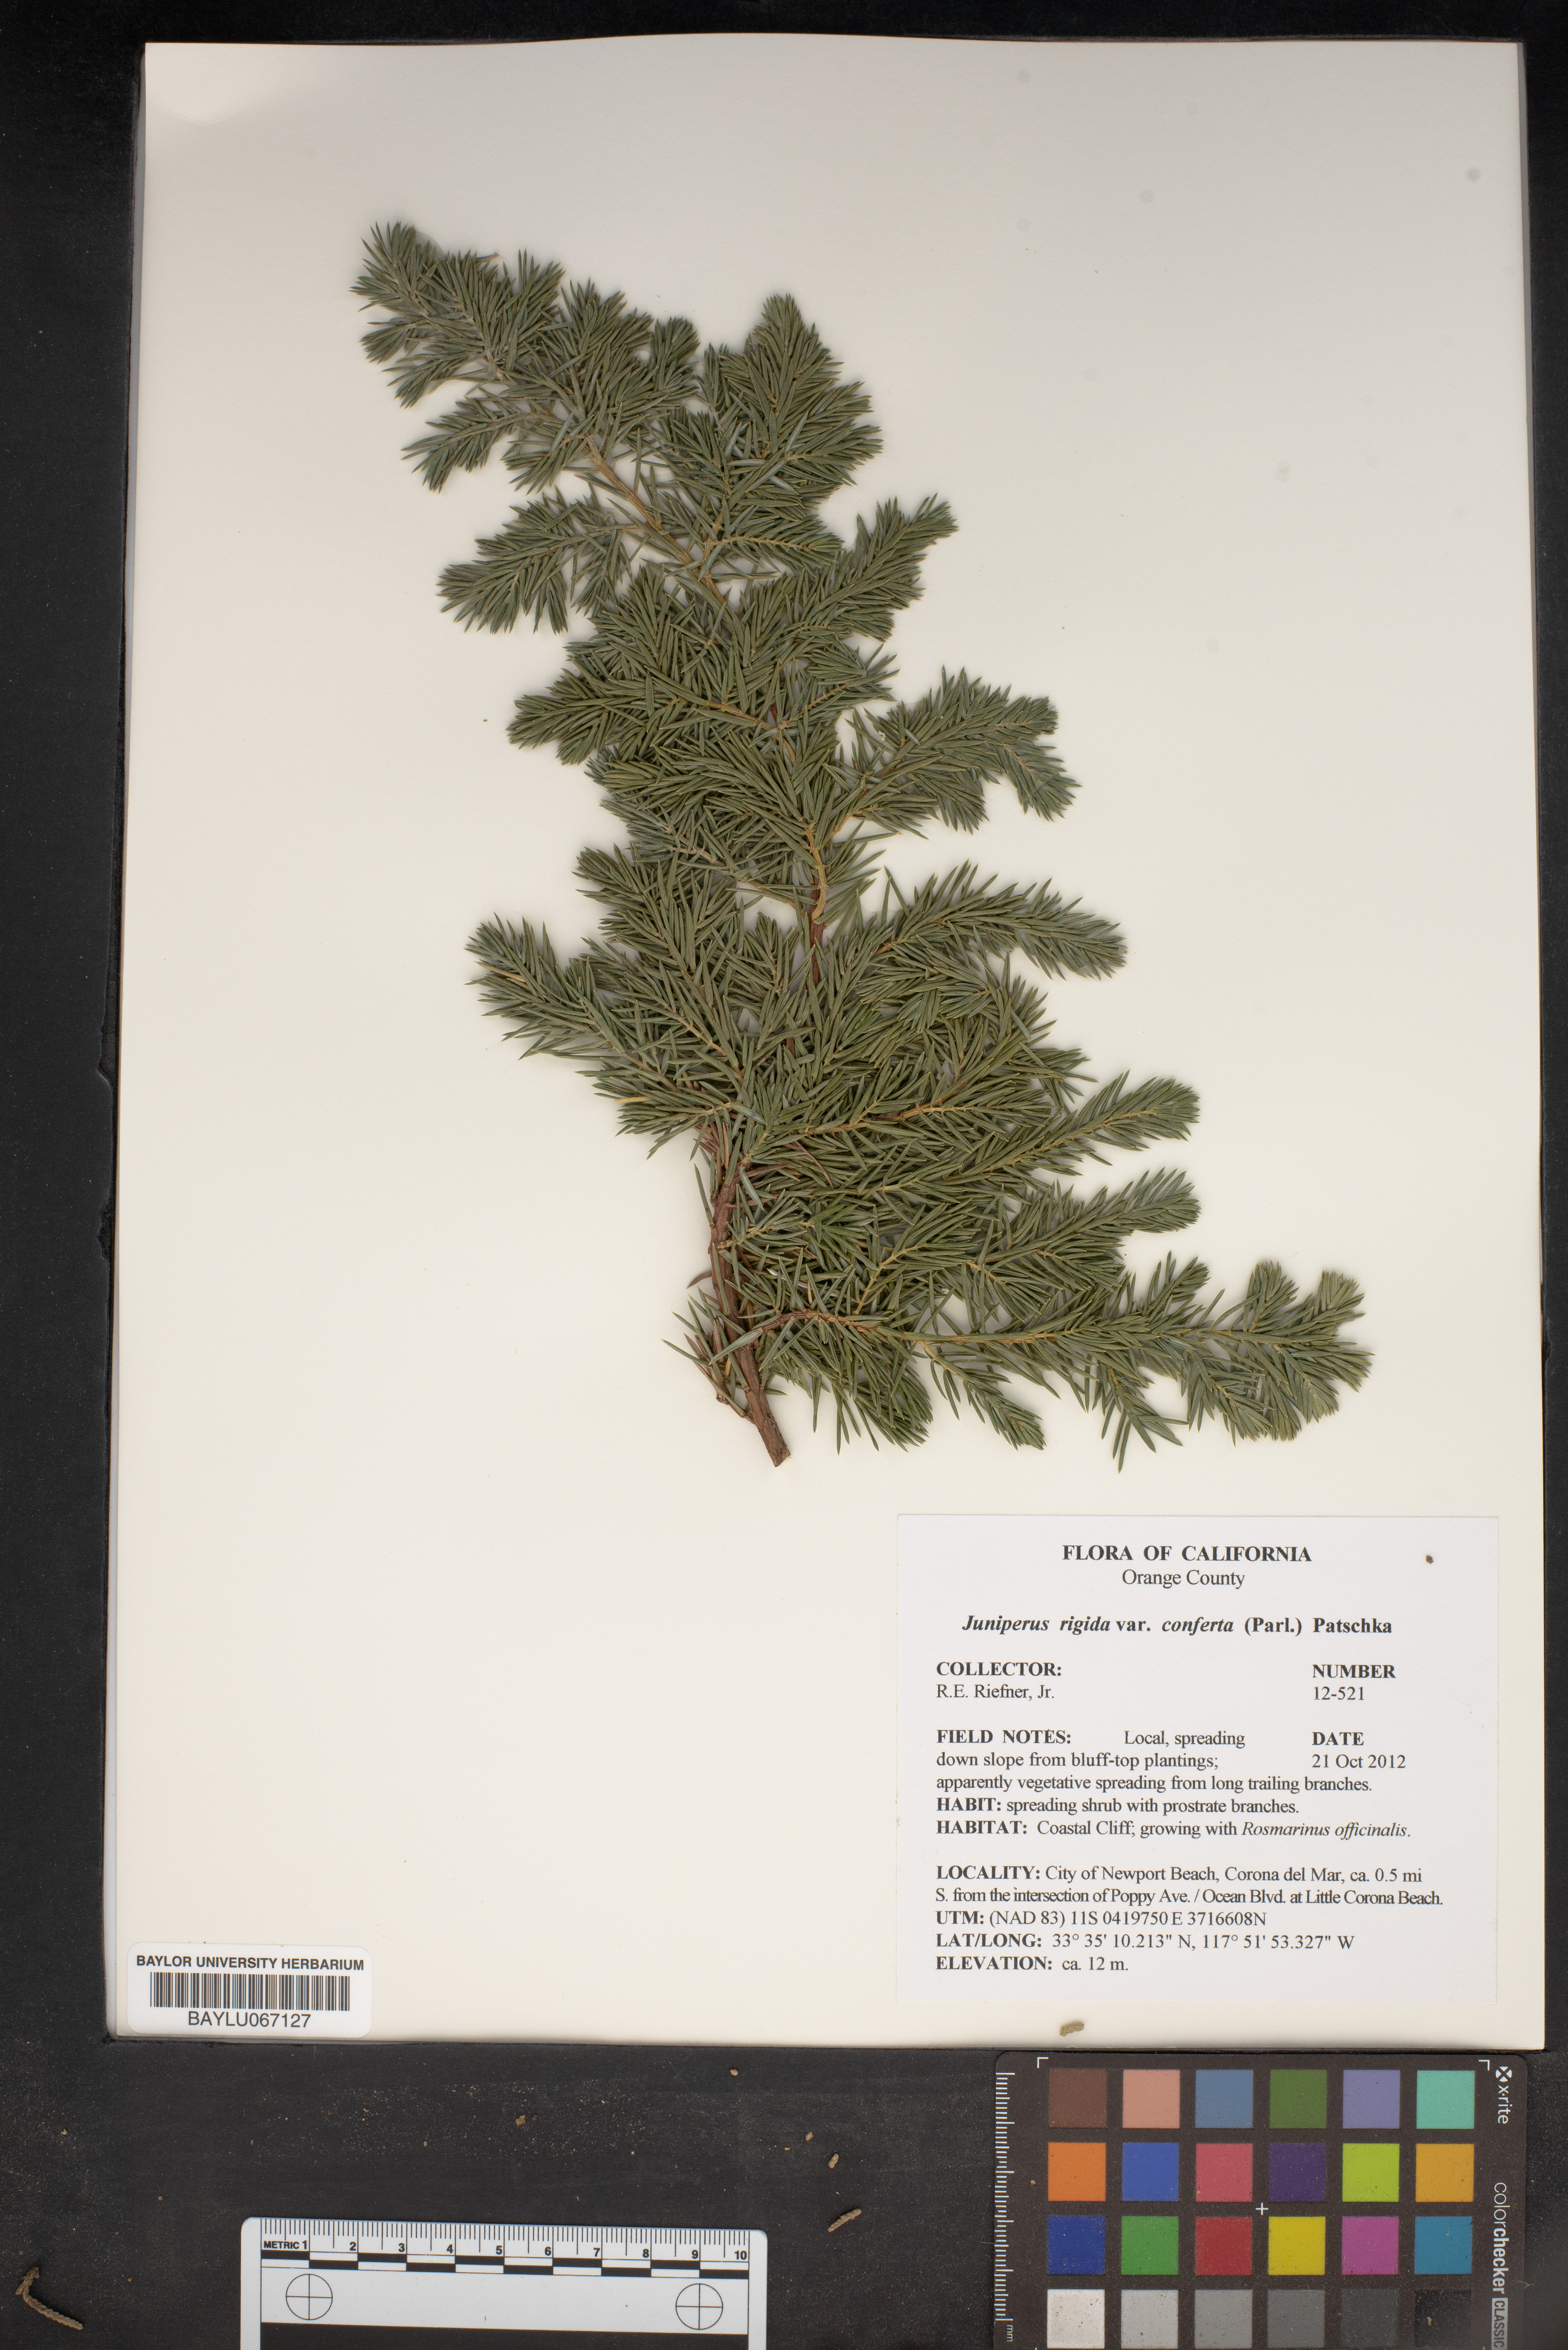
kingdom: Plantae
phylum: Tracheophyta
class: Pinopsida
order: Pinales
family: Cupressaceae
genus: Juniperus
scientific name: Juniperus rigida
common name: Needle juniper
